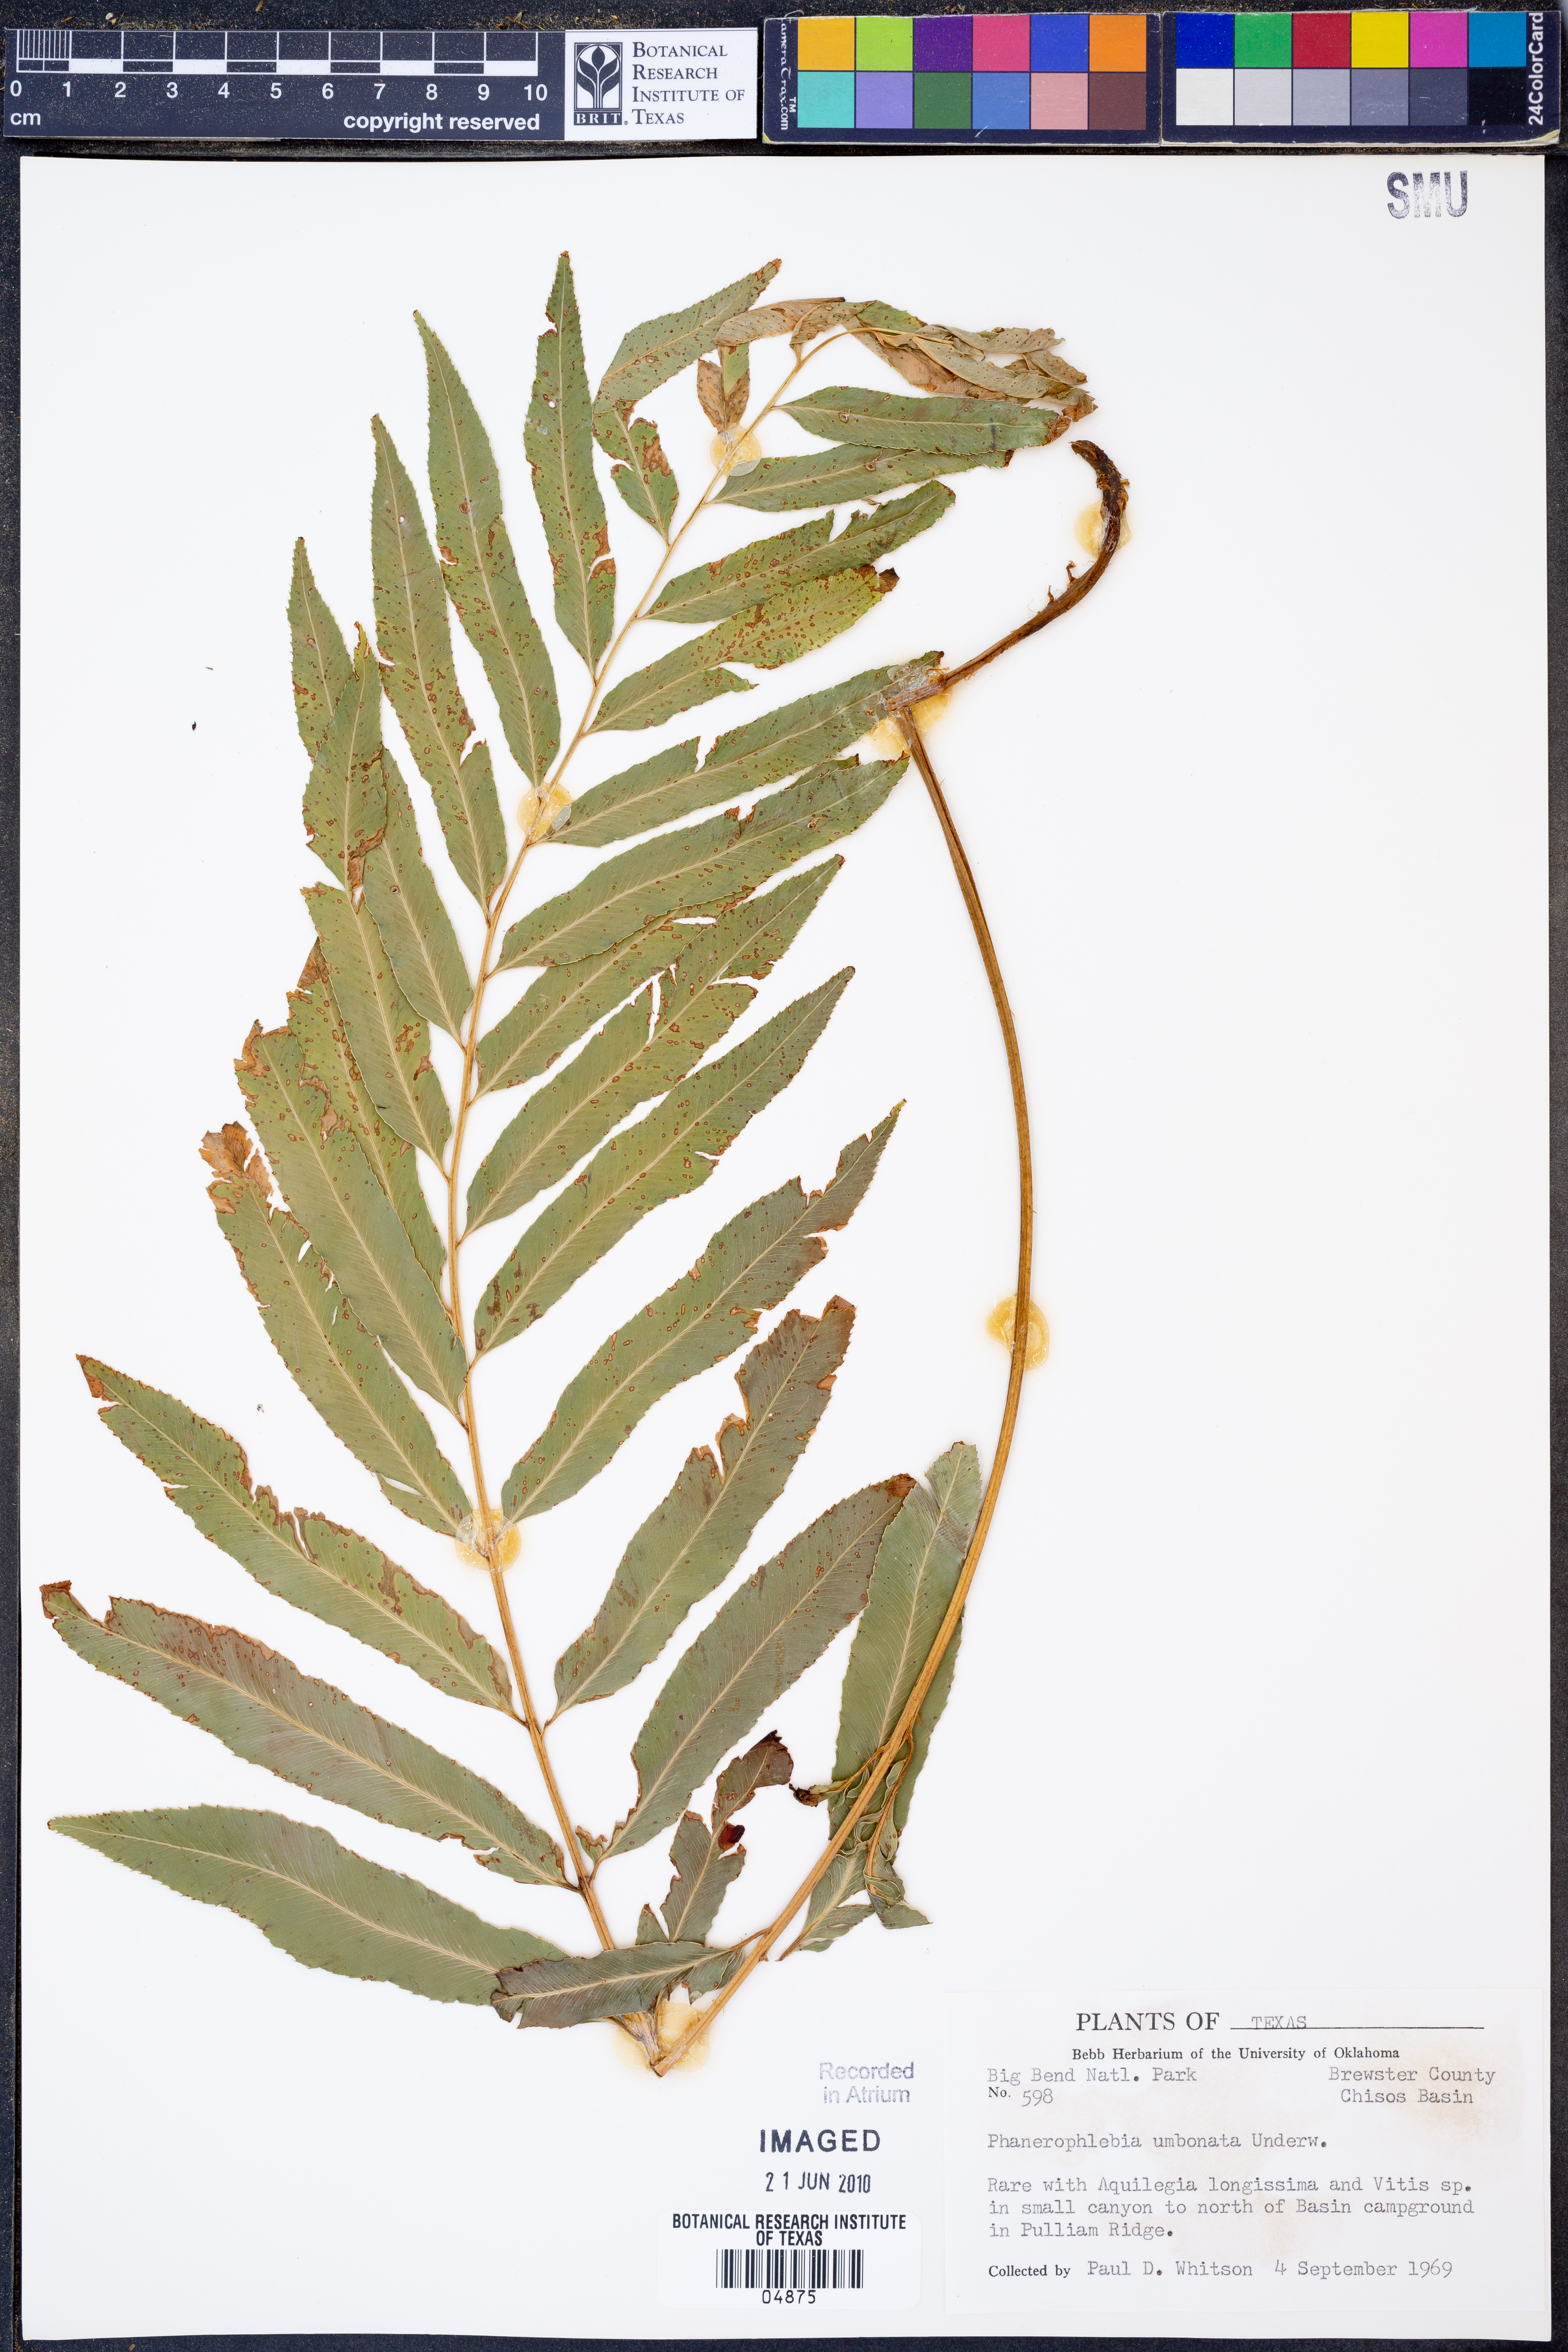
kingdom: Plantae
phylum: Tracheophyta
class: Polypodiopsida
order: Polypodiales
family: Dryopteridaceae
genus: Phanerophlebia
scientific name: Phanerophlebia umbonata
